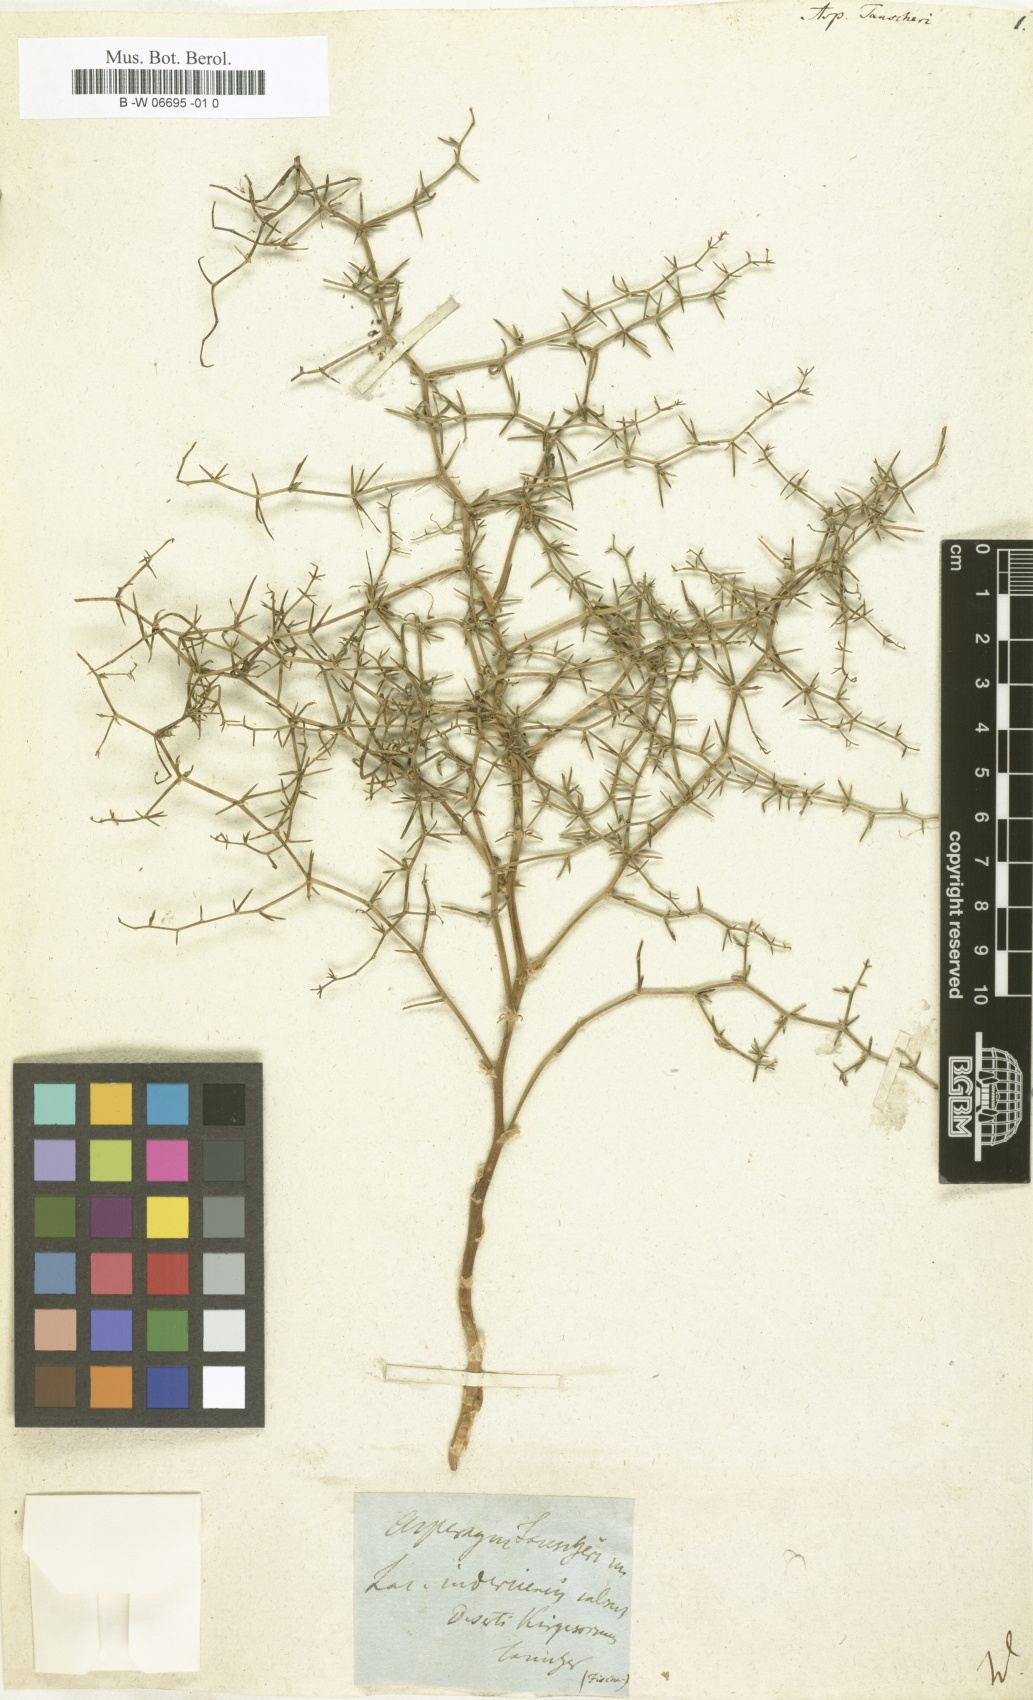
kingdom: Plantae
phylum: Tracheophyta
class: Liliopsida
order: Asparagales
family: Asparagaceae
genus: Asparagus
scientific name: Asparagus maritimus
